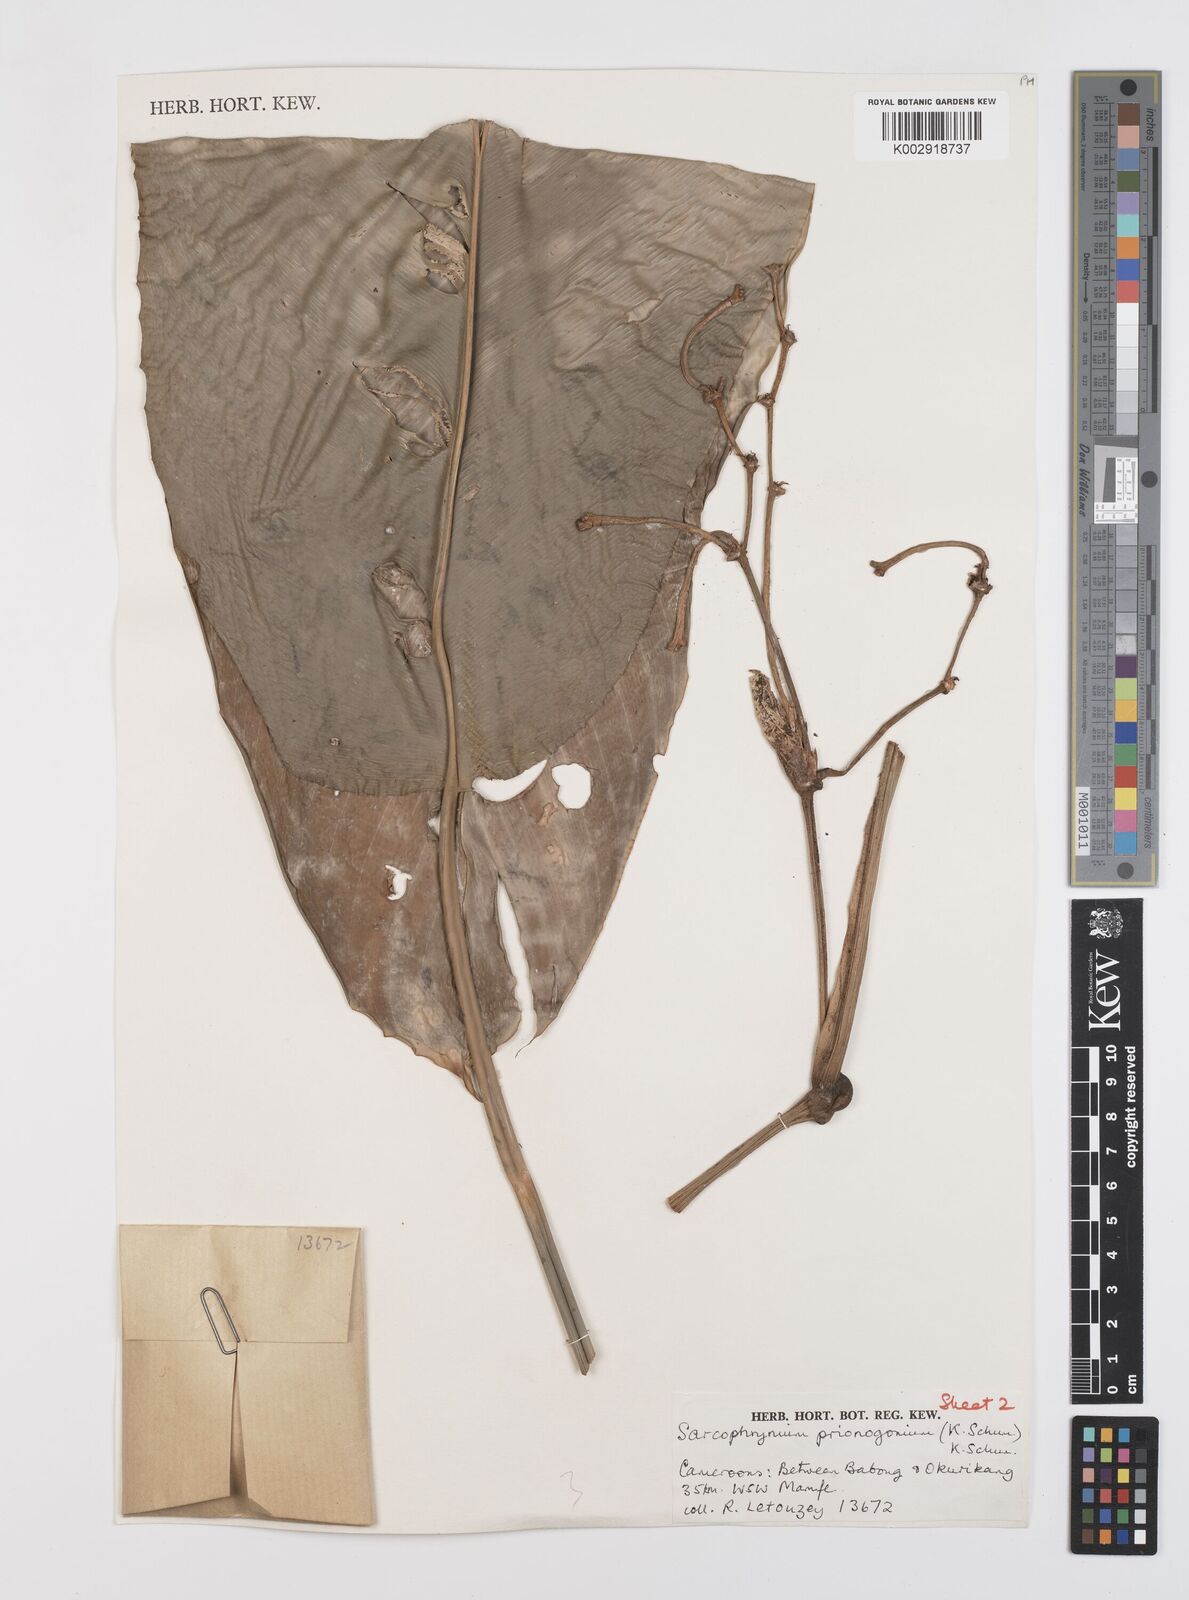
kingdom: Plantae
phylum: Tracheophyta
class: Liliopsida
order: Zingiberales
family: Marantaceae
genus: Sarcophrynium
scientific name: Sarcophrynium prionogonium
